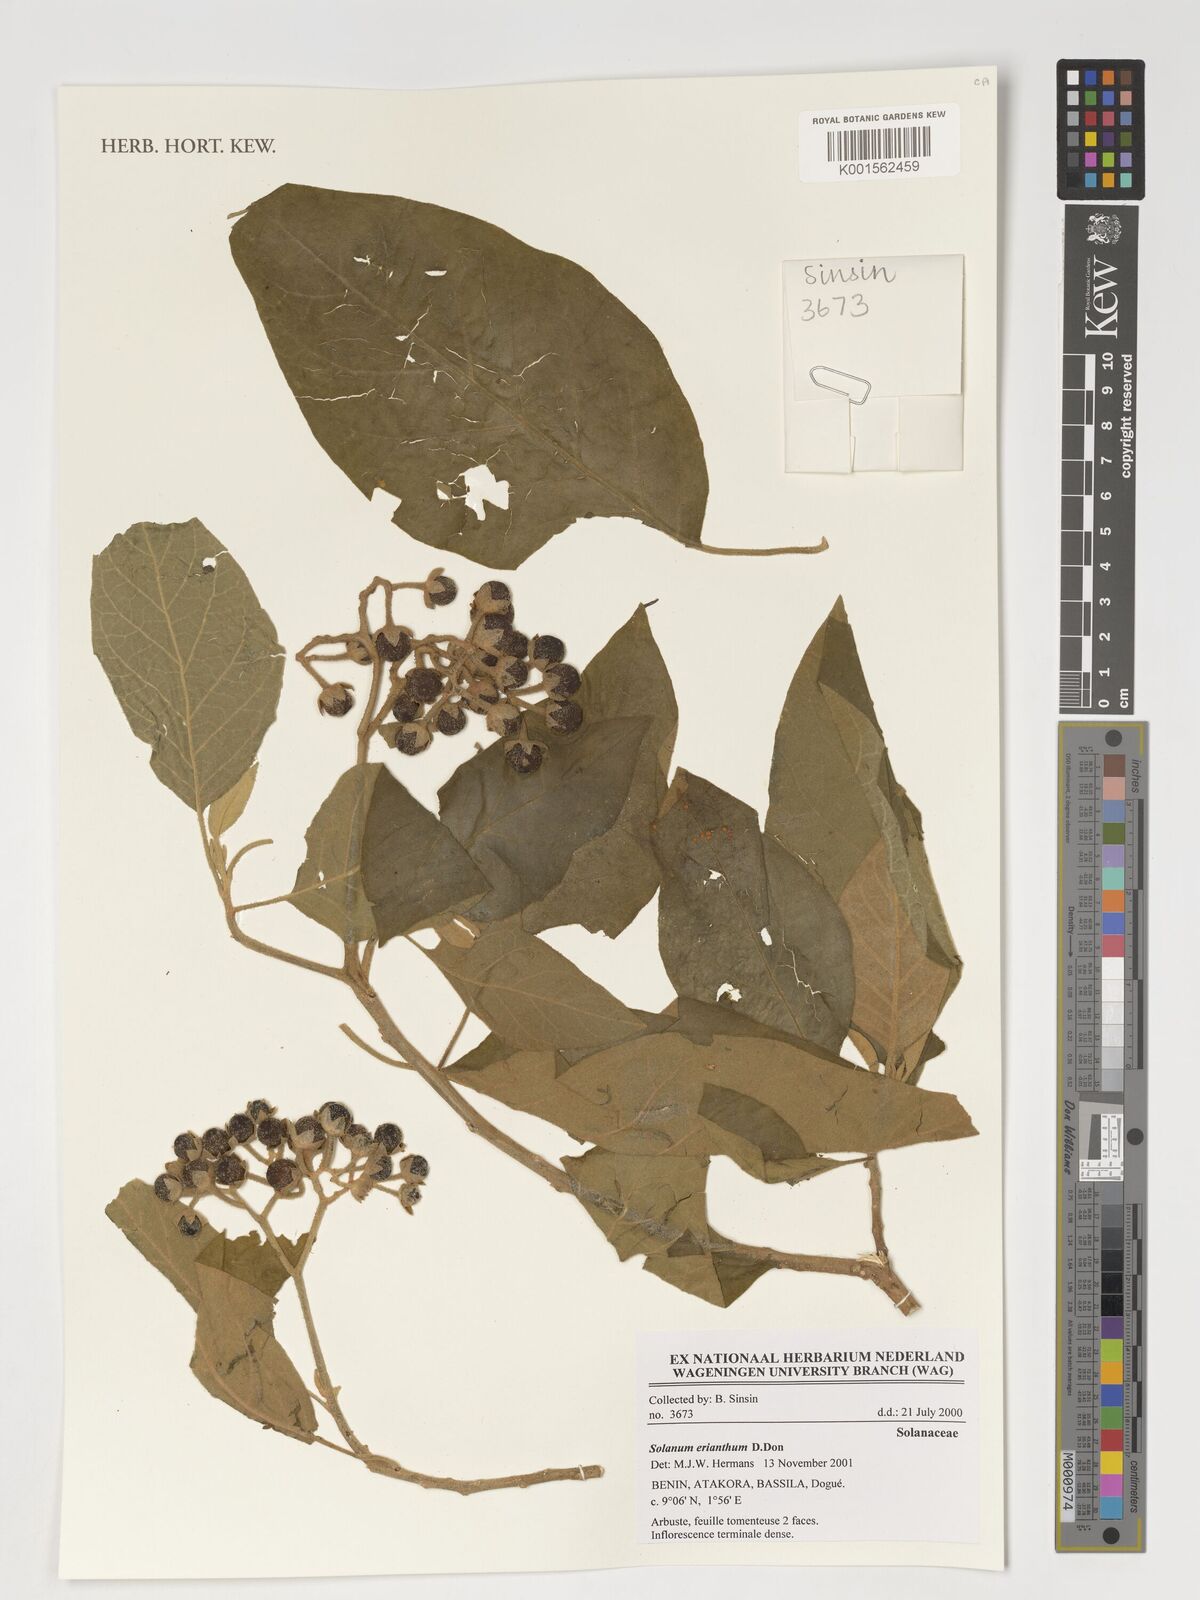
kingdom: Plantae
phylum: Tracheophyta
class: Magnoliopsida
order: Solanales
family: Solanaceae
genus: Solanum
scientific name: Solanum erianthum
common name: Tobacco-tree
